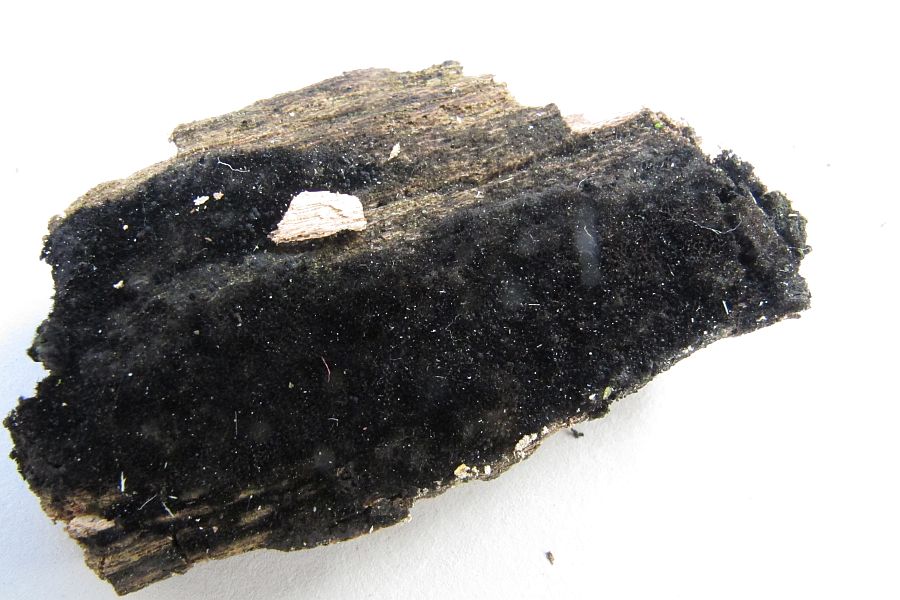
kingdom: Fungi
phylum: Ascomycota
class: Sordariomycetes
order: Coronophorales
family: Chaetosphaerellaceae
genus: Chaetosphaerella
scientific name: Chaetosphaerella phaeostroma
